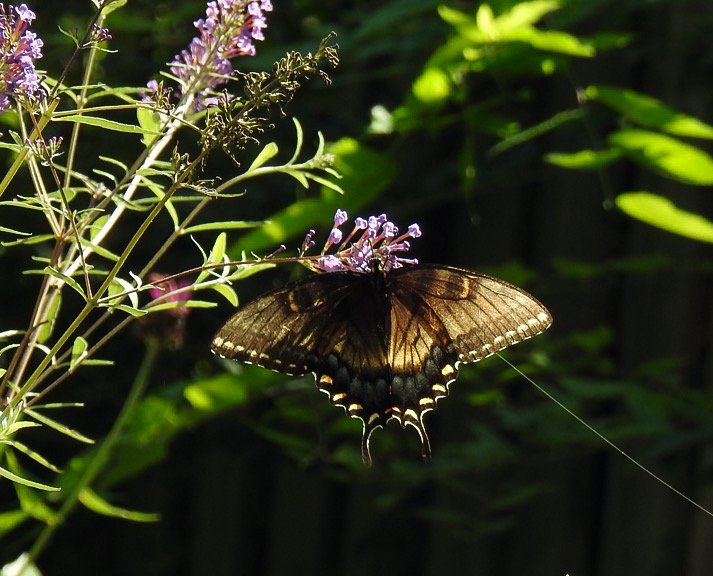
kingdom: Animalia
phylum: Arthropoda
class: Insecta
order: Lepidoptera
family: Papilionidae
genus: Pterourus
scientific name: Pterourus glaucus
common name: Eastern Tiger Swallowtail
